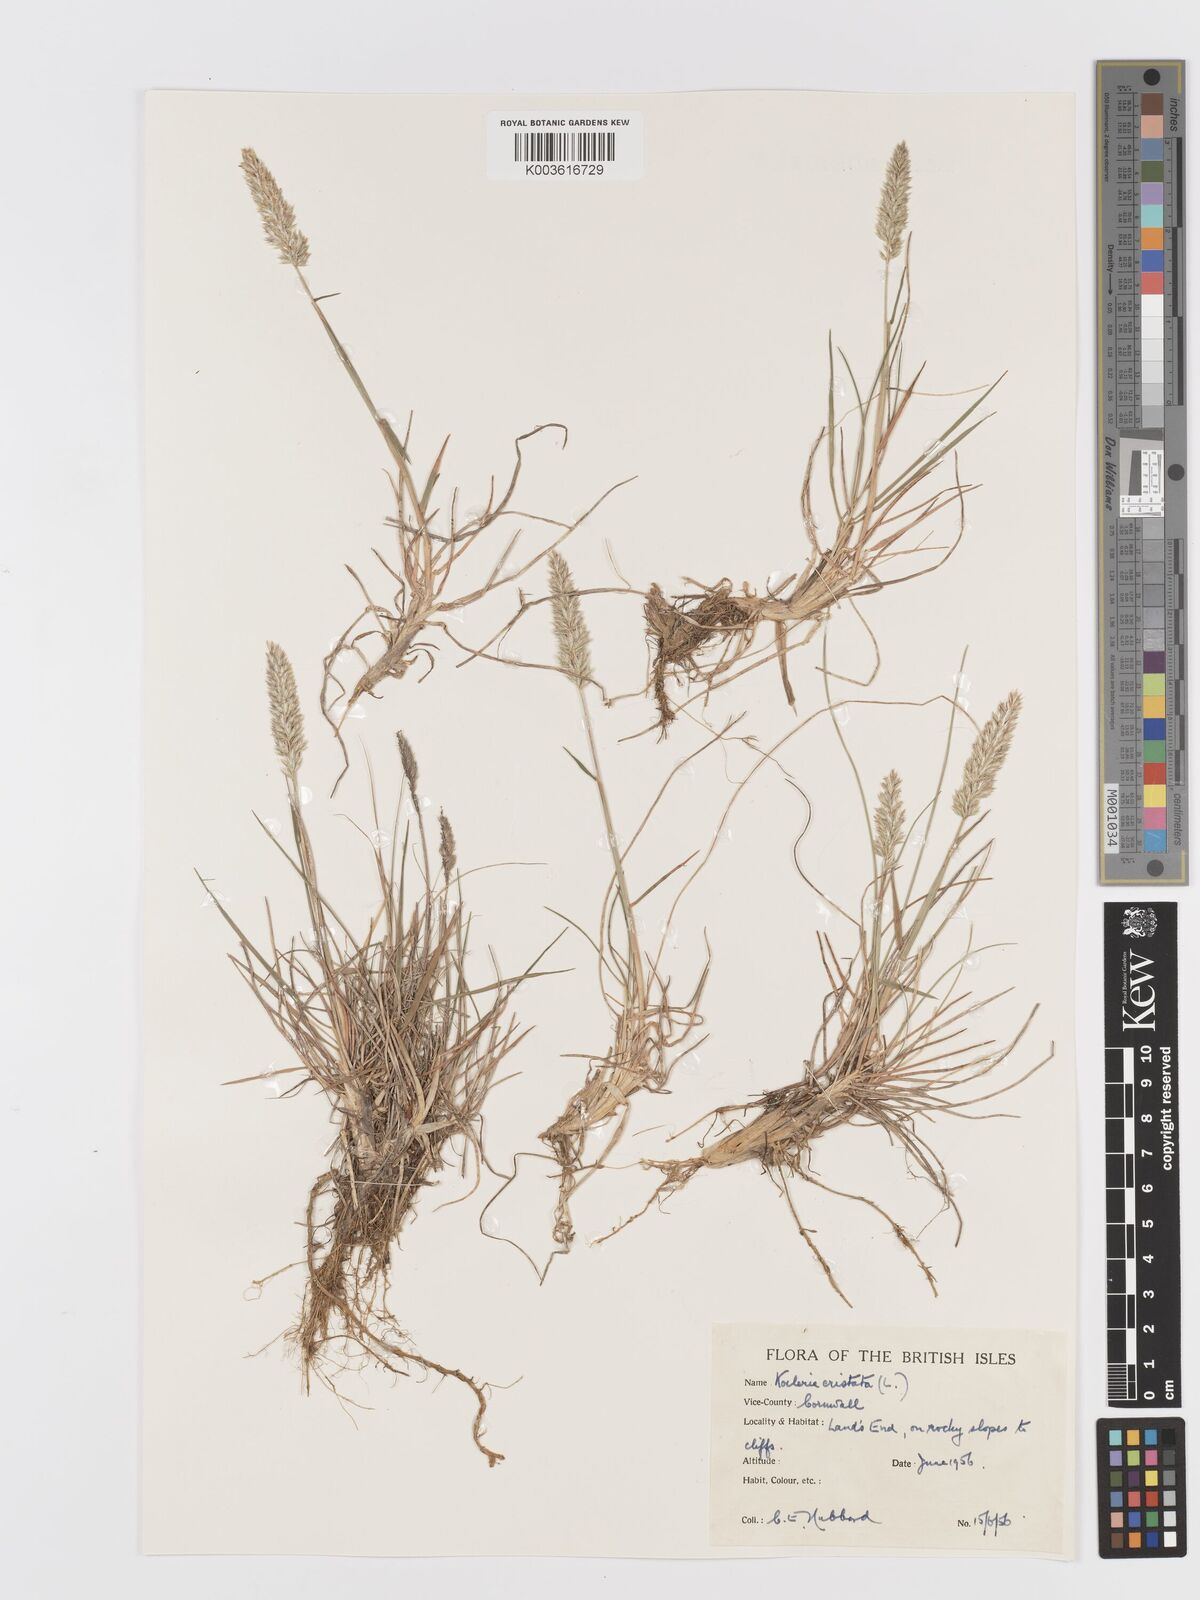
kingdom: Plantae
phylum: Tracheophyta
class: Liliopsida
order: Poales
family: Poaceae
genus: Koeleria
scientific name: Koeleria
